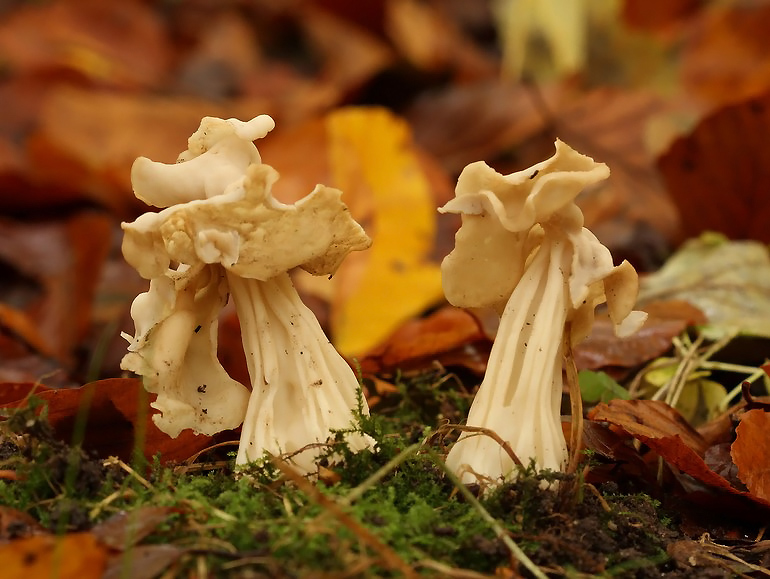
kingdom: Fungi
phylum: Ascomycota
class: Pezizomycetes
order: Pezizales
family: Helvellaceae
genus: Helvella
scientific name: Helvella crispa
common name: kruset foldhat
